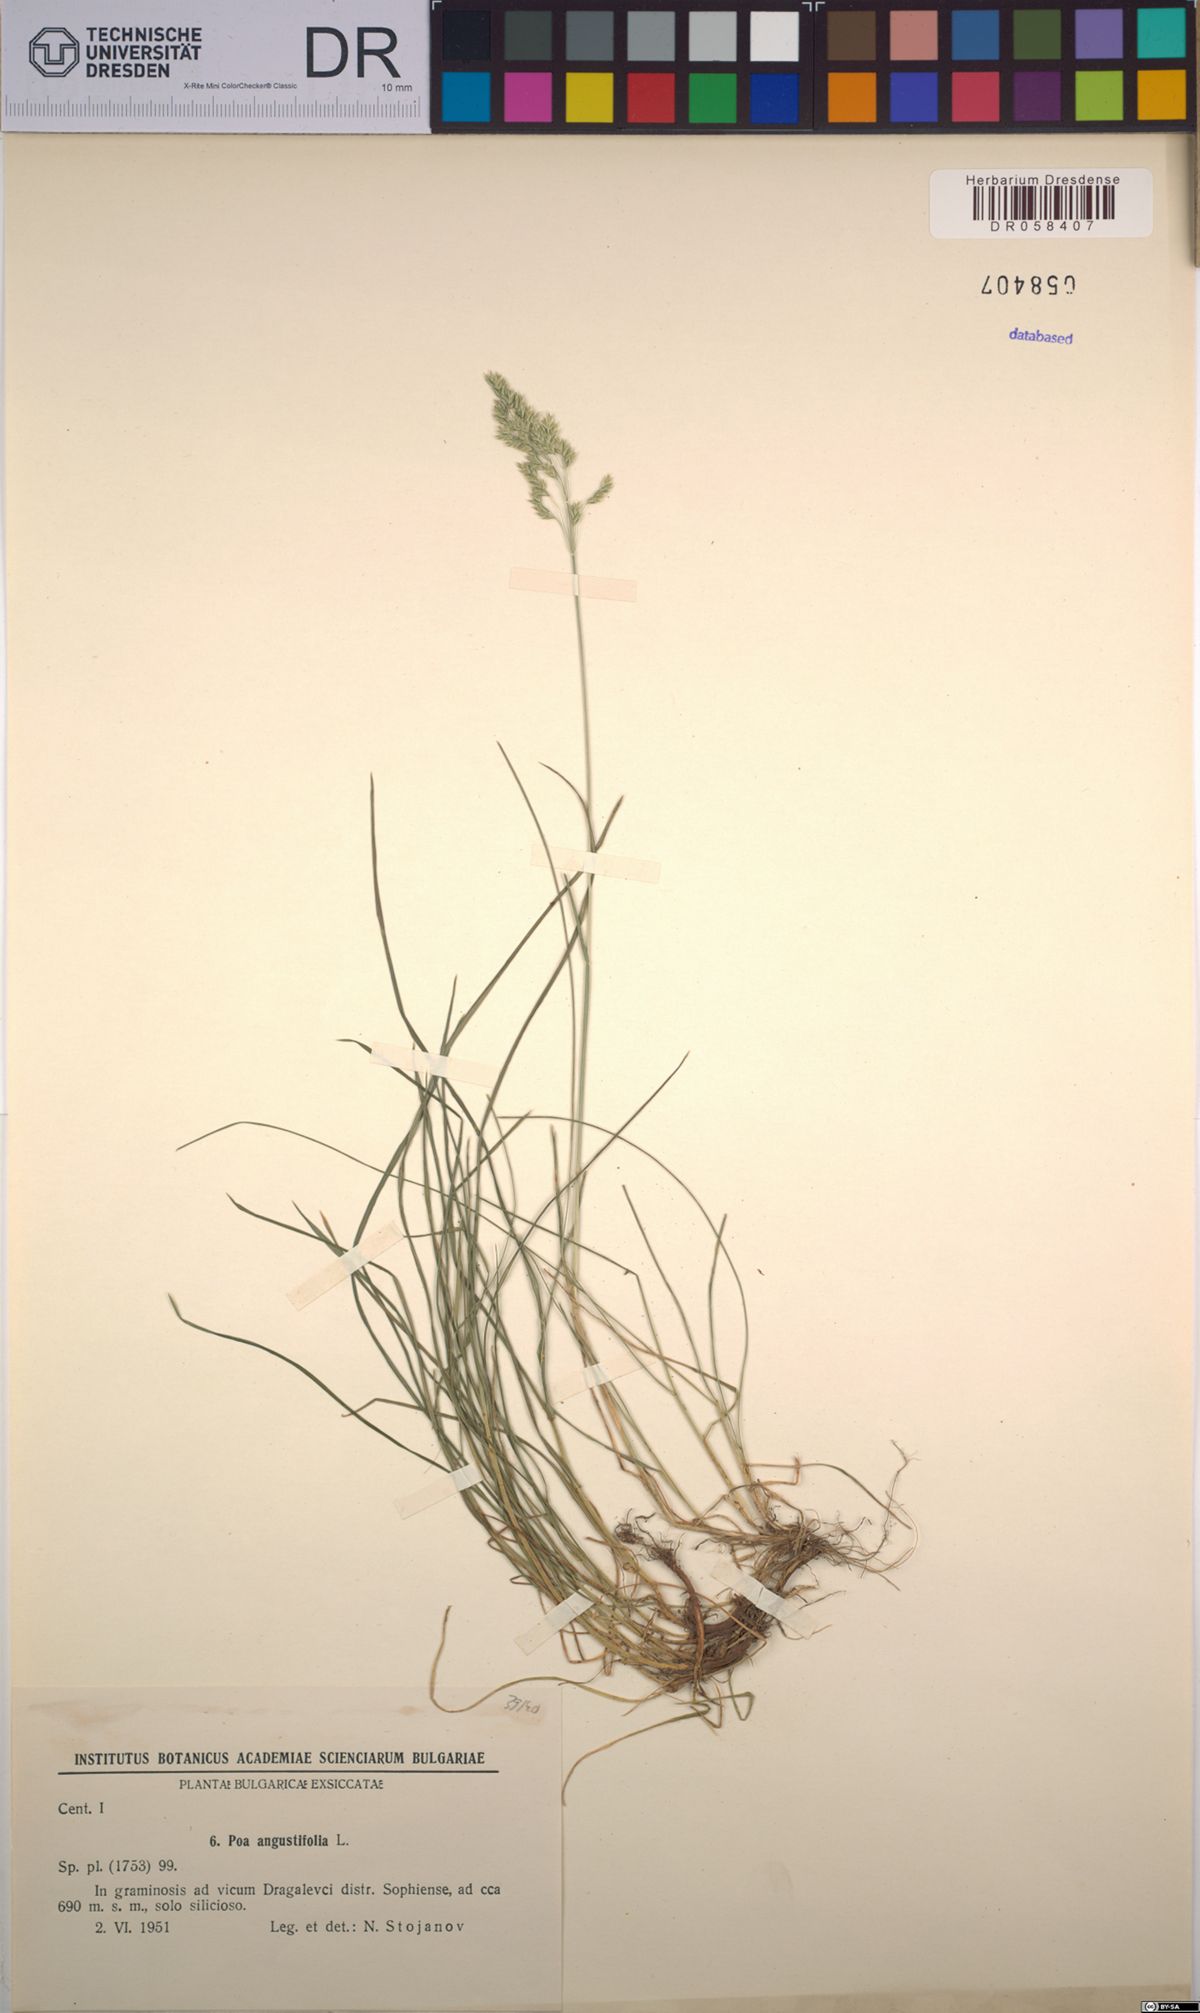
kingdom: Plantae
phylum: Tracheophyta
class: Liliopsida
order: Poales
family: Poaceae
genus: Poa
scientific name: Poa angustifolia
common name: Narrow-leaved meadow-grass
